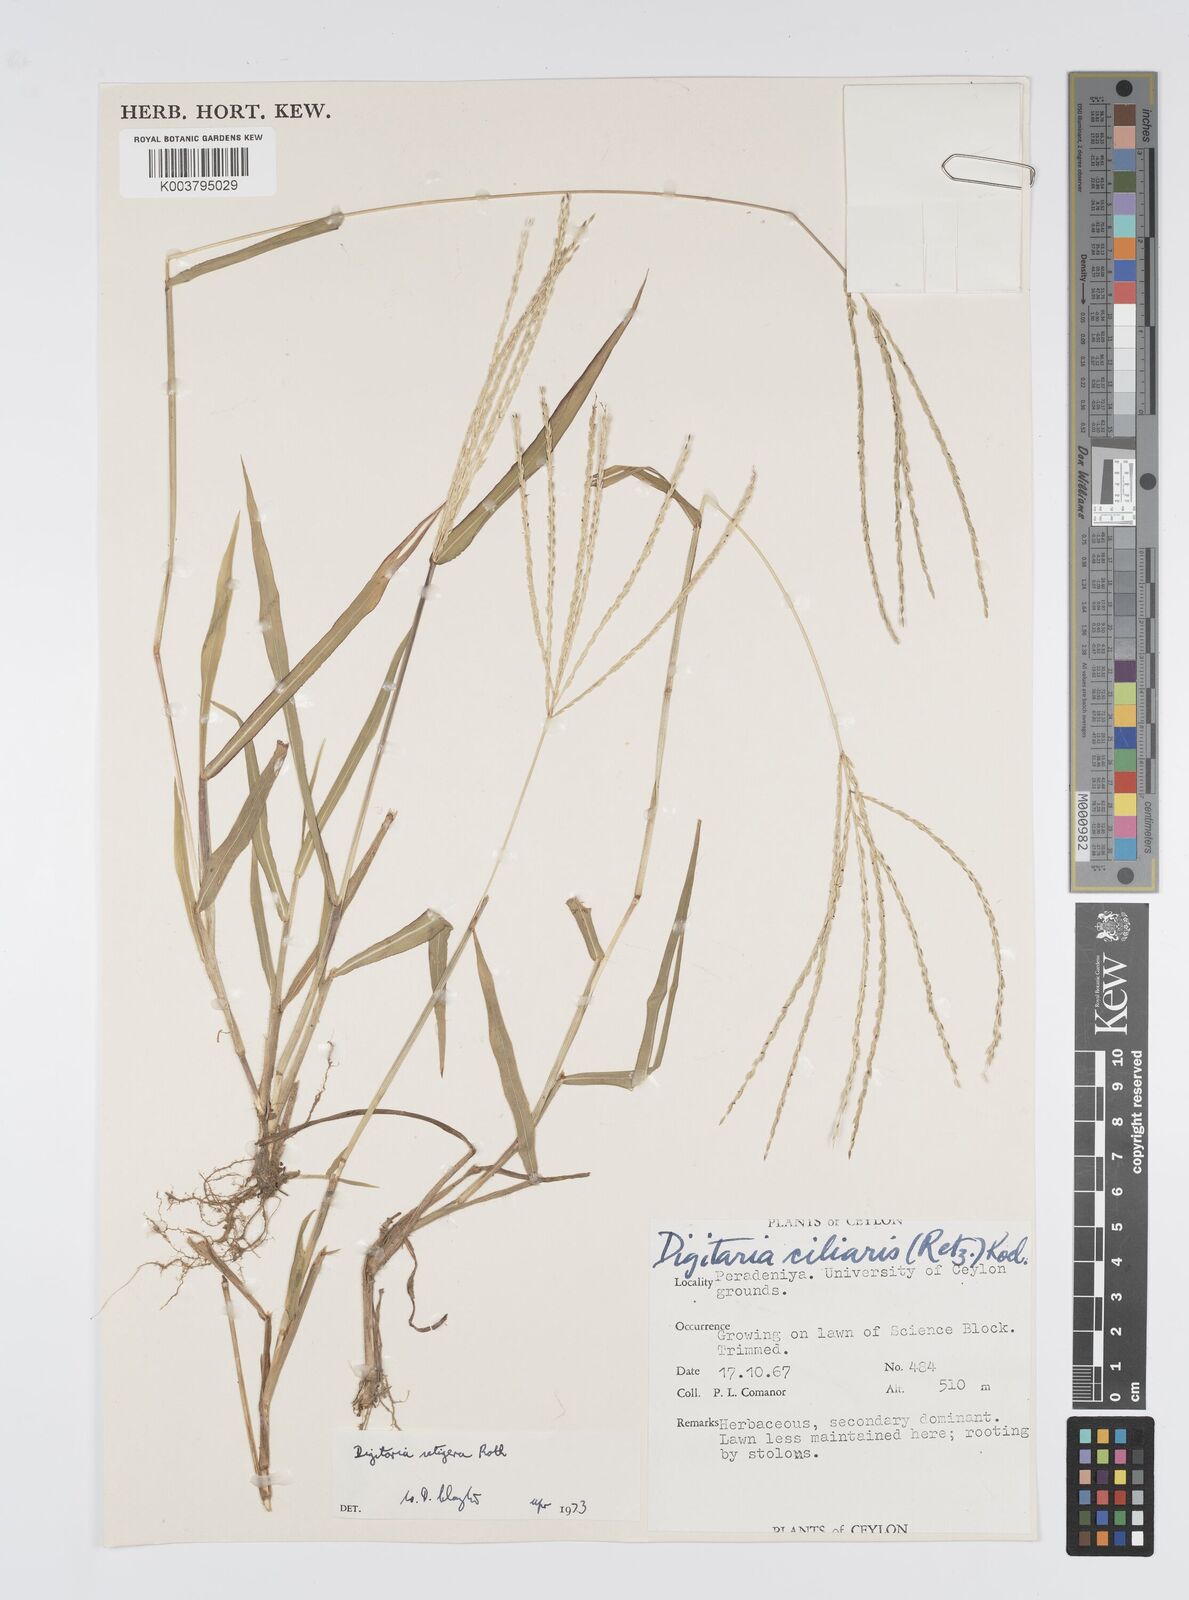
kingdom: Plantae
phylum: Tracheophyta
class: Liliopsida
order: Poales
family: Poaceae
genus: Digitaria
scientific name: Digitaria setigera
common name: East indian crabgrass
